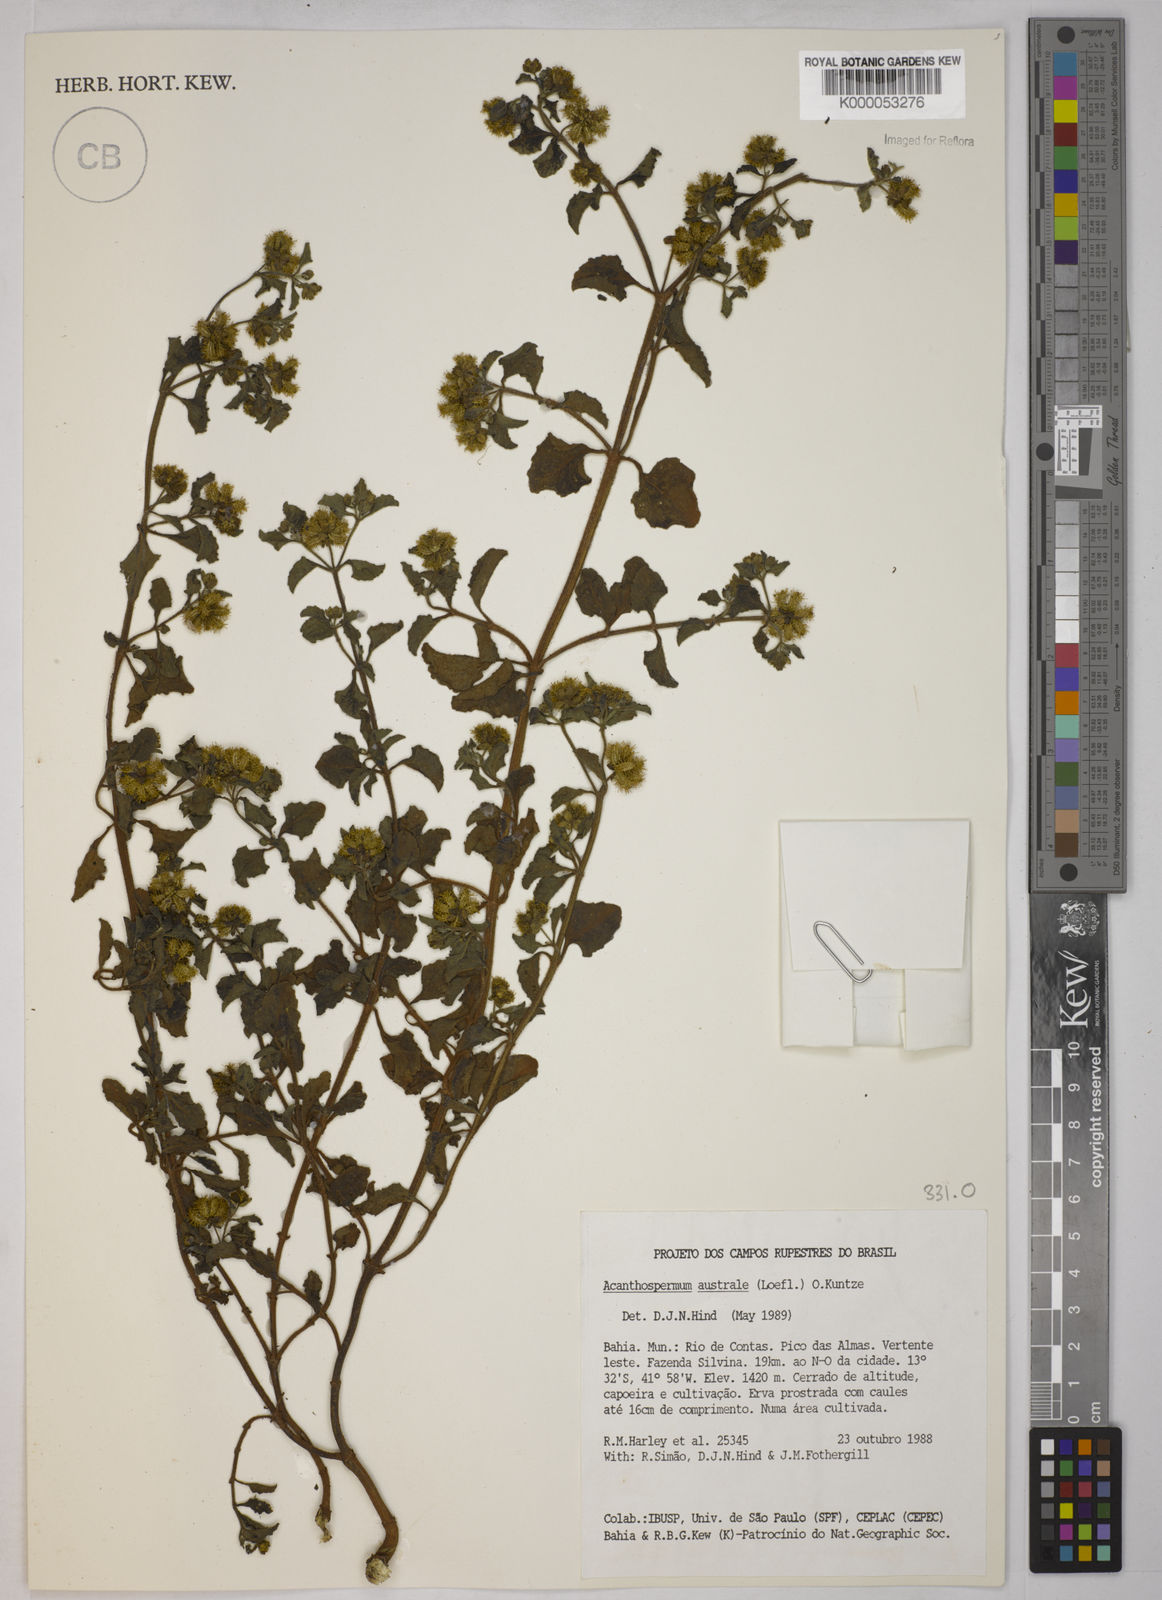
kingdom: Plantae
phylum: Tracheophyta
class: Magnoliopsida
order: Asterales
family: Asteraceae
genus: Acanthospermum
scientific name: Acanthospermum australe
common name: Paraguayan starbur
